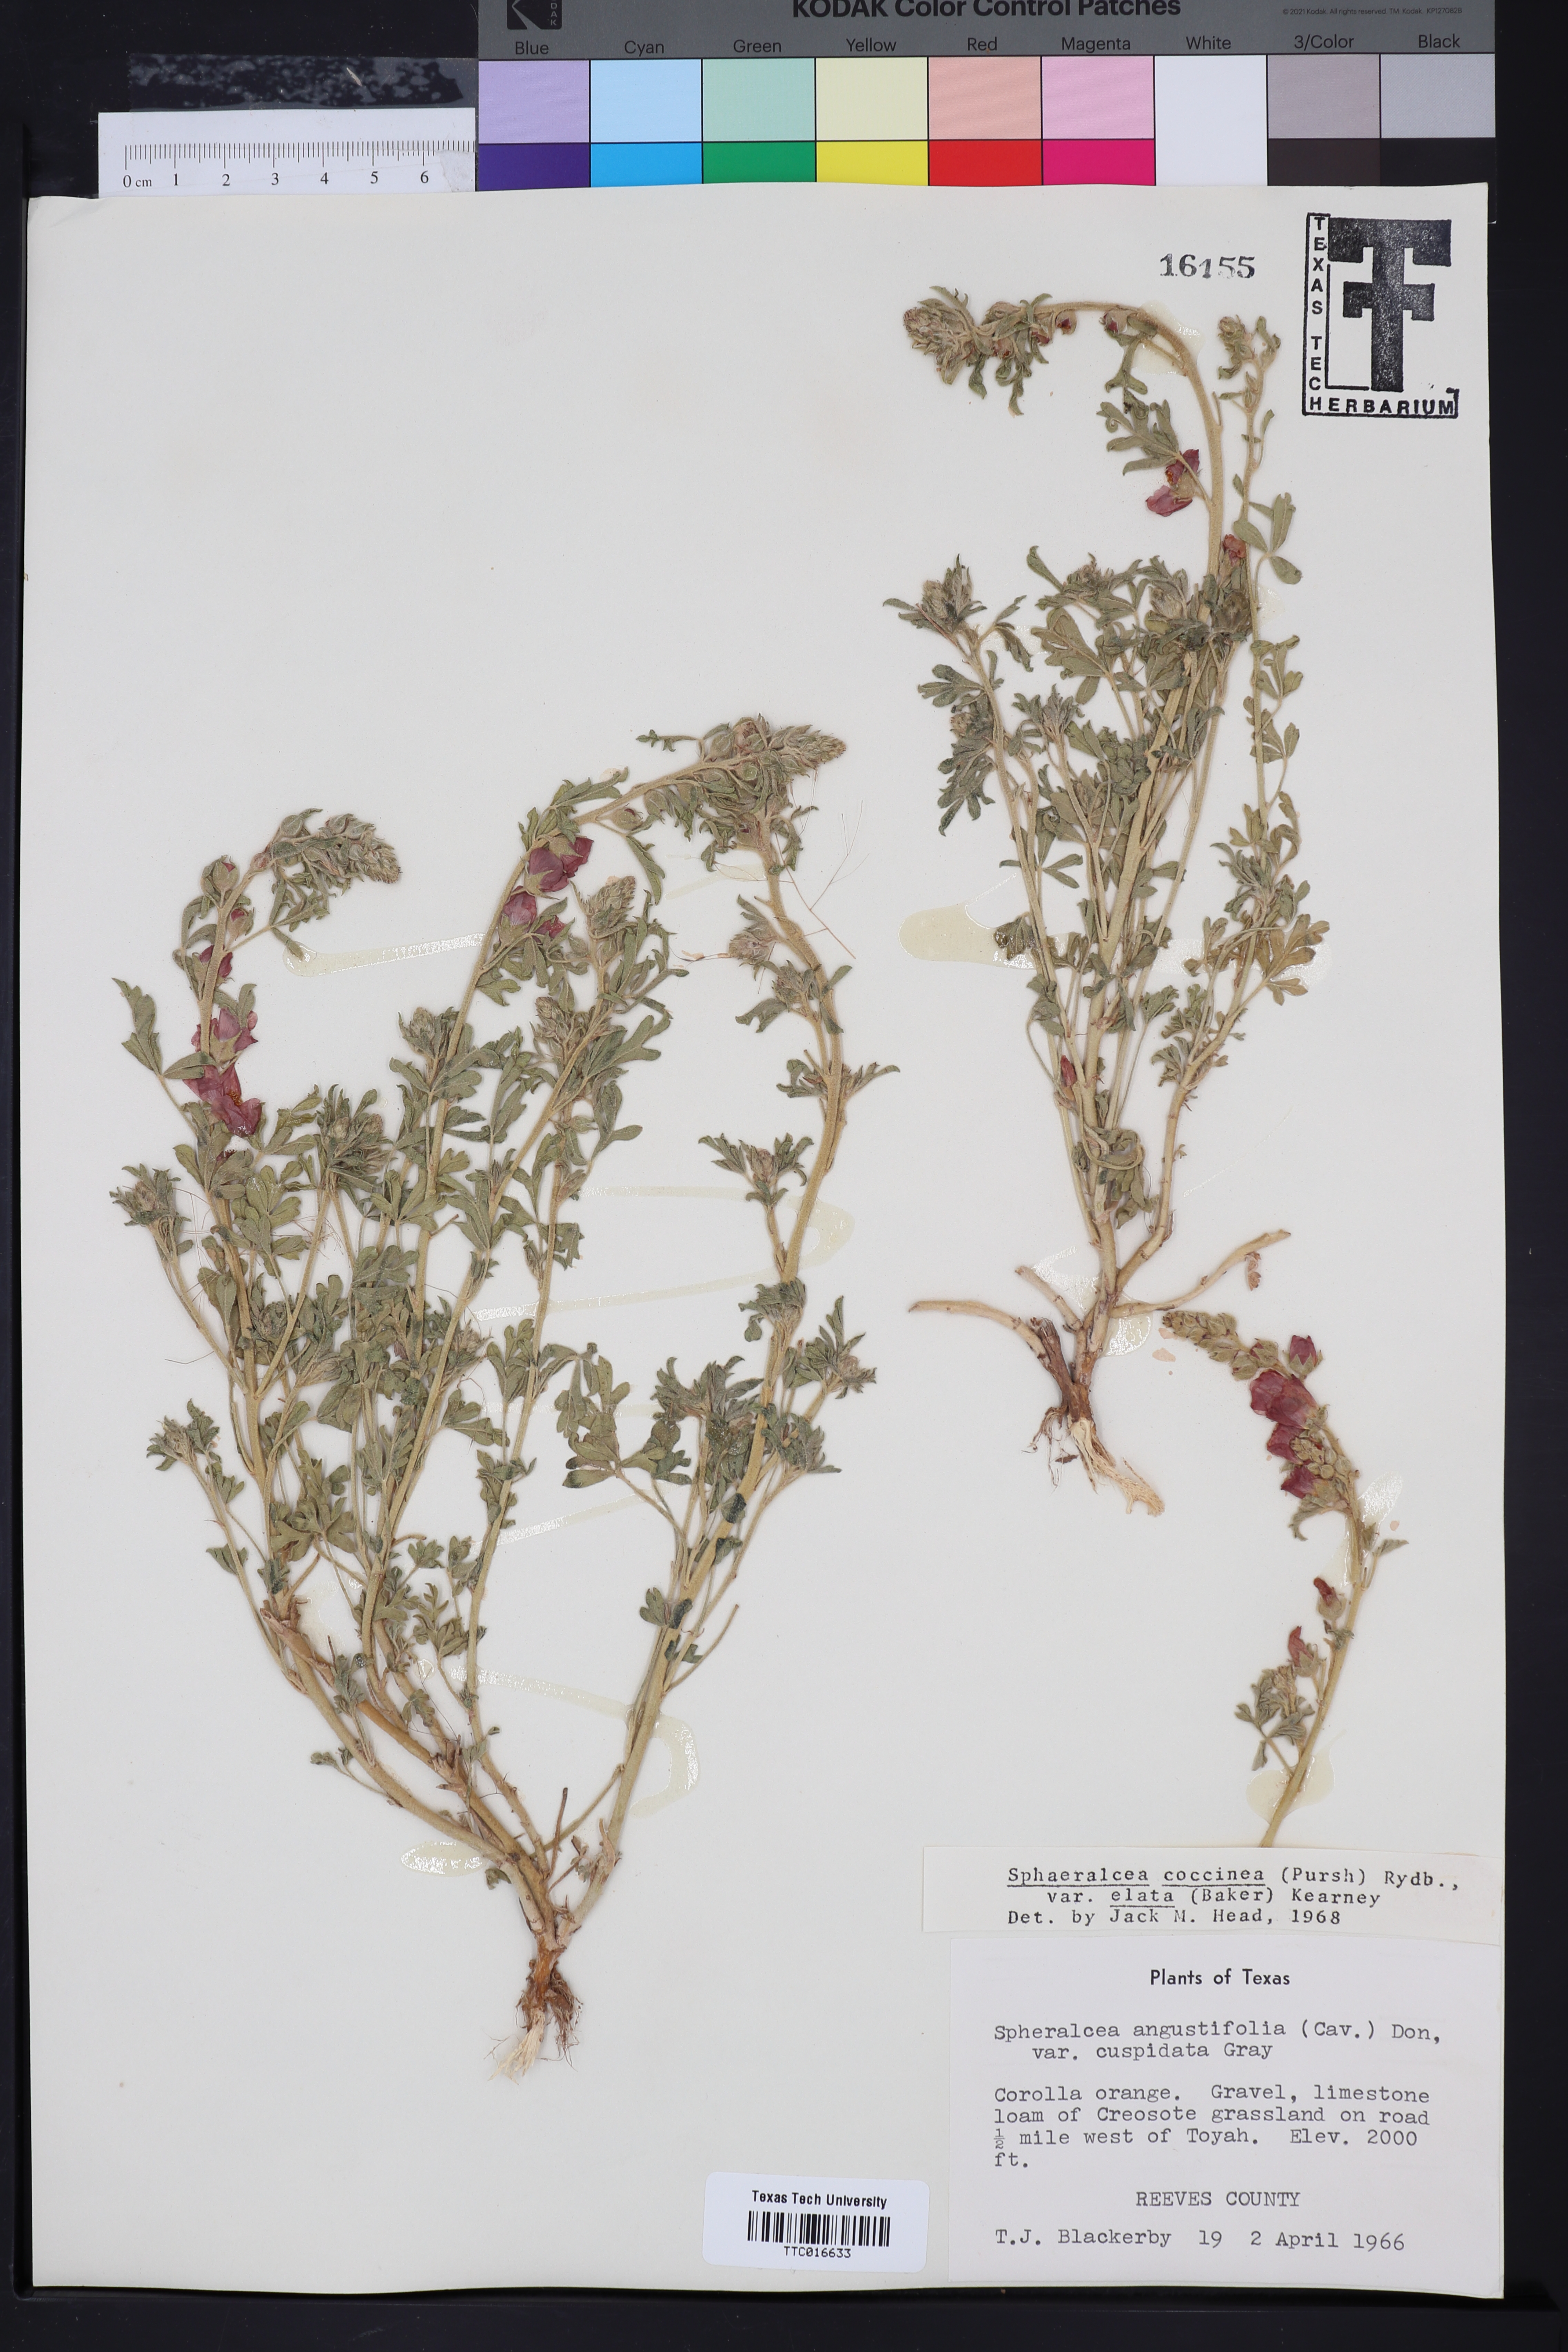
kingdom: Plantae
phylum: Tracheophyta
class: Magnoliopsida
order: Malvales
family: Malvaceae
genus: Sphaeralcea
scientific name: Sphaeralcea coccinea
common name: Moss-rose
